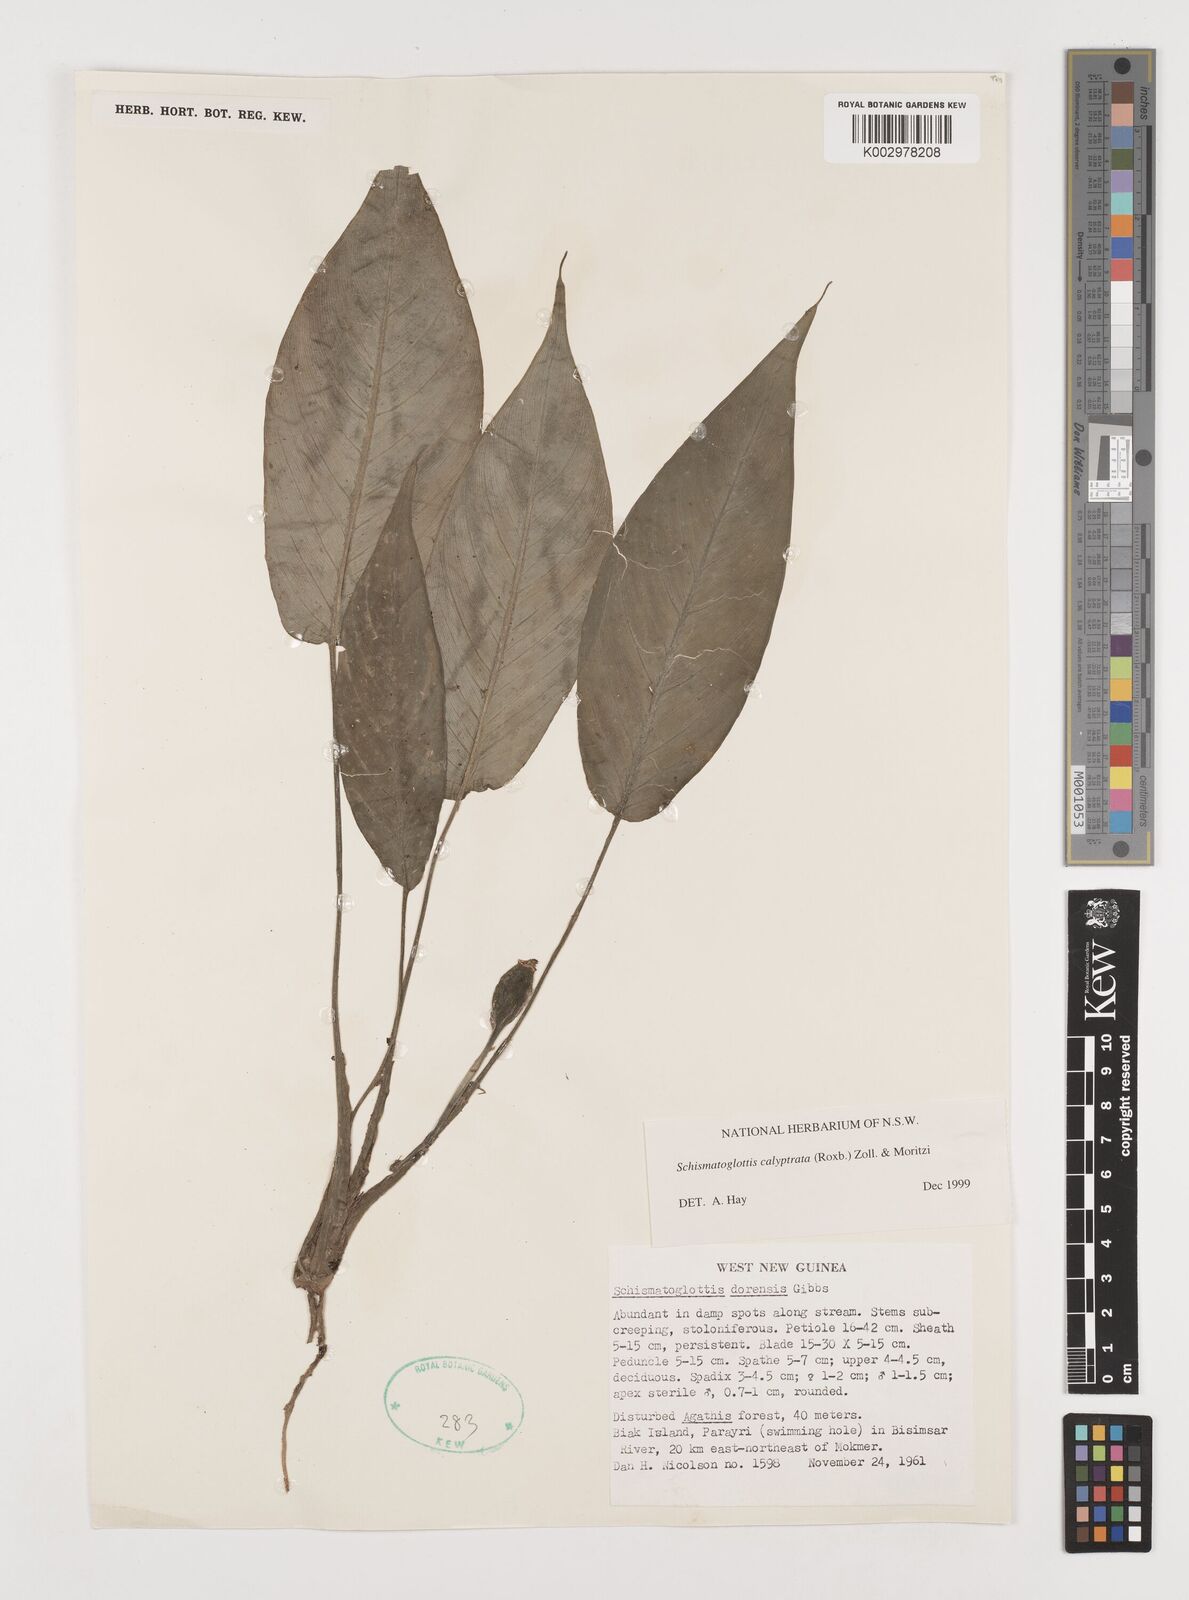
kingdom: Plantae
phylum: Tracheophyta
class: Liliopsida
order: Alismatales
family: Araceae
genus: Schismatoglottis
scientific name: Schismatoglottis calyptrata
